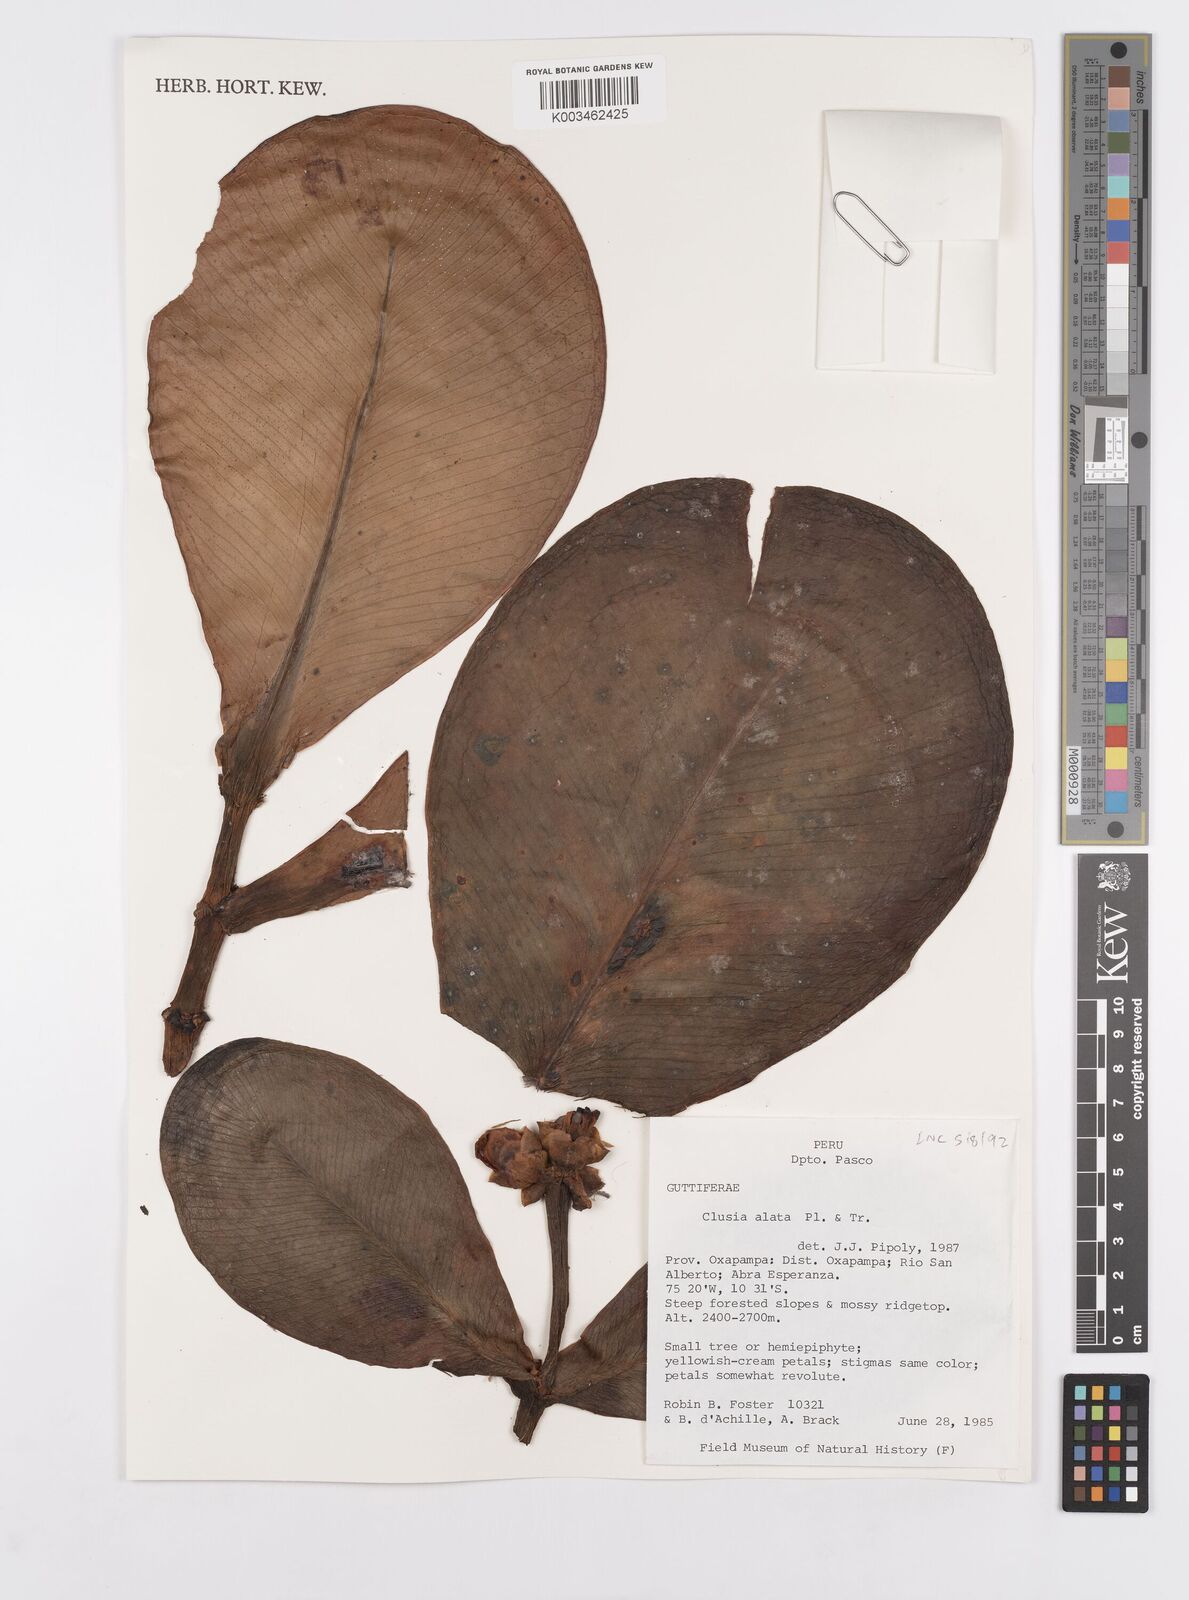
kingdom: Plantae
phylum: Tracheophyta
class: Magnoliopsida
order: Malpighiales
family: Clusiaceae
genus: Clusia
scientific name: Clusia alata
